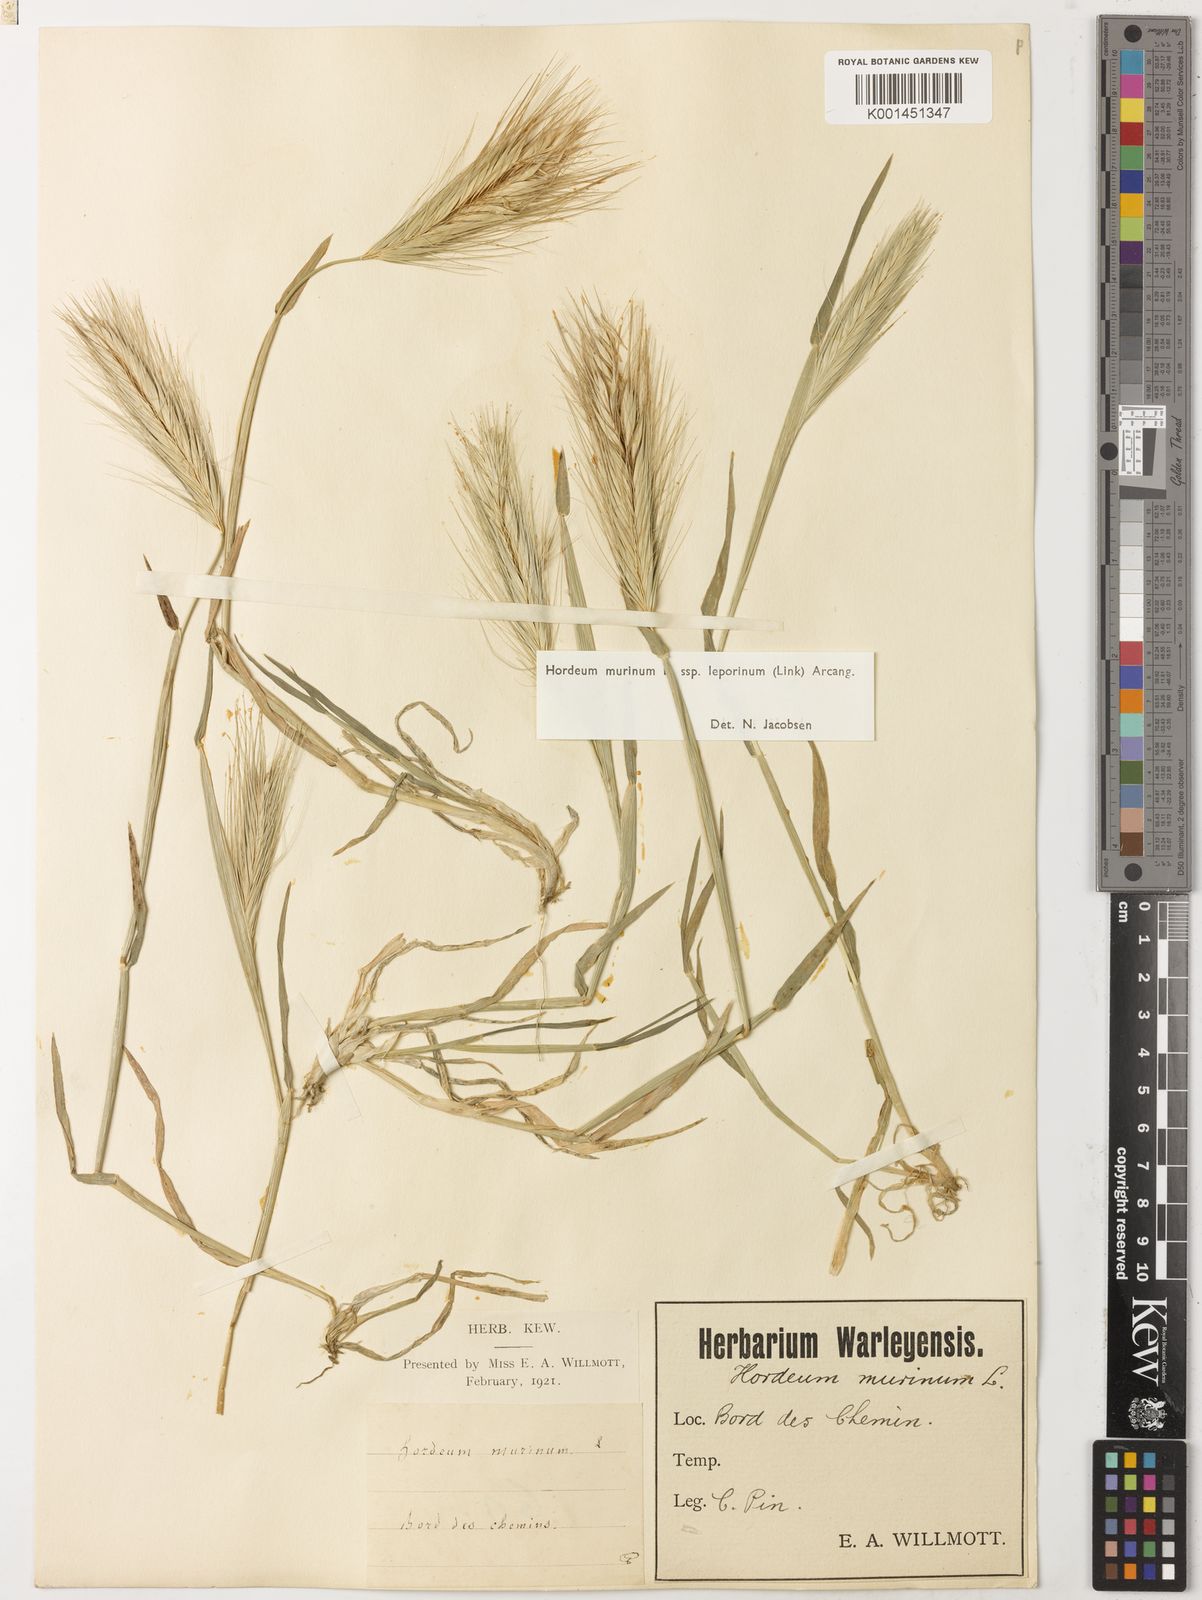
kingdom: Plantae
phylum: Tracheophyta
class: Liliopsida
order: Poales
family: Poaceae
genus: Hordeum
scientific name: Hordeum murinum
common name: Wall barley
